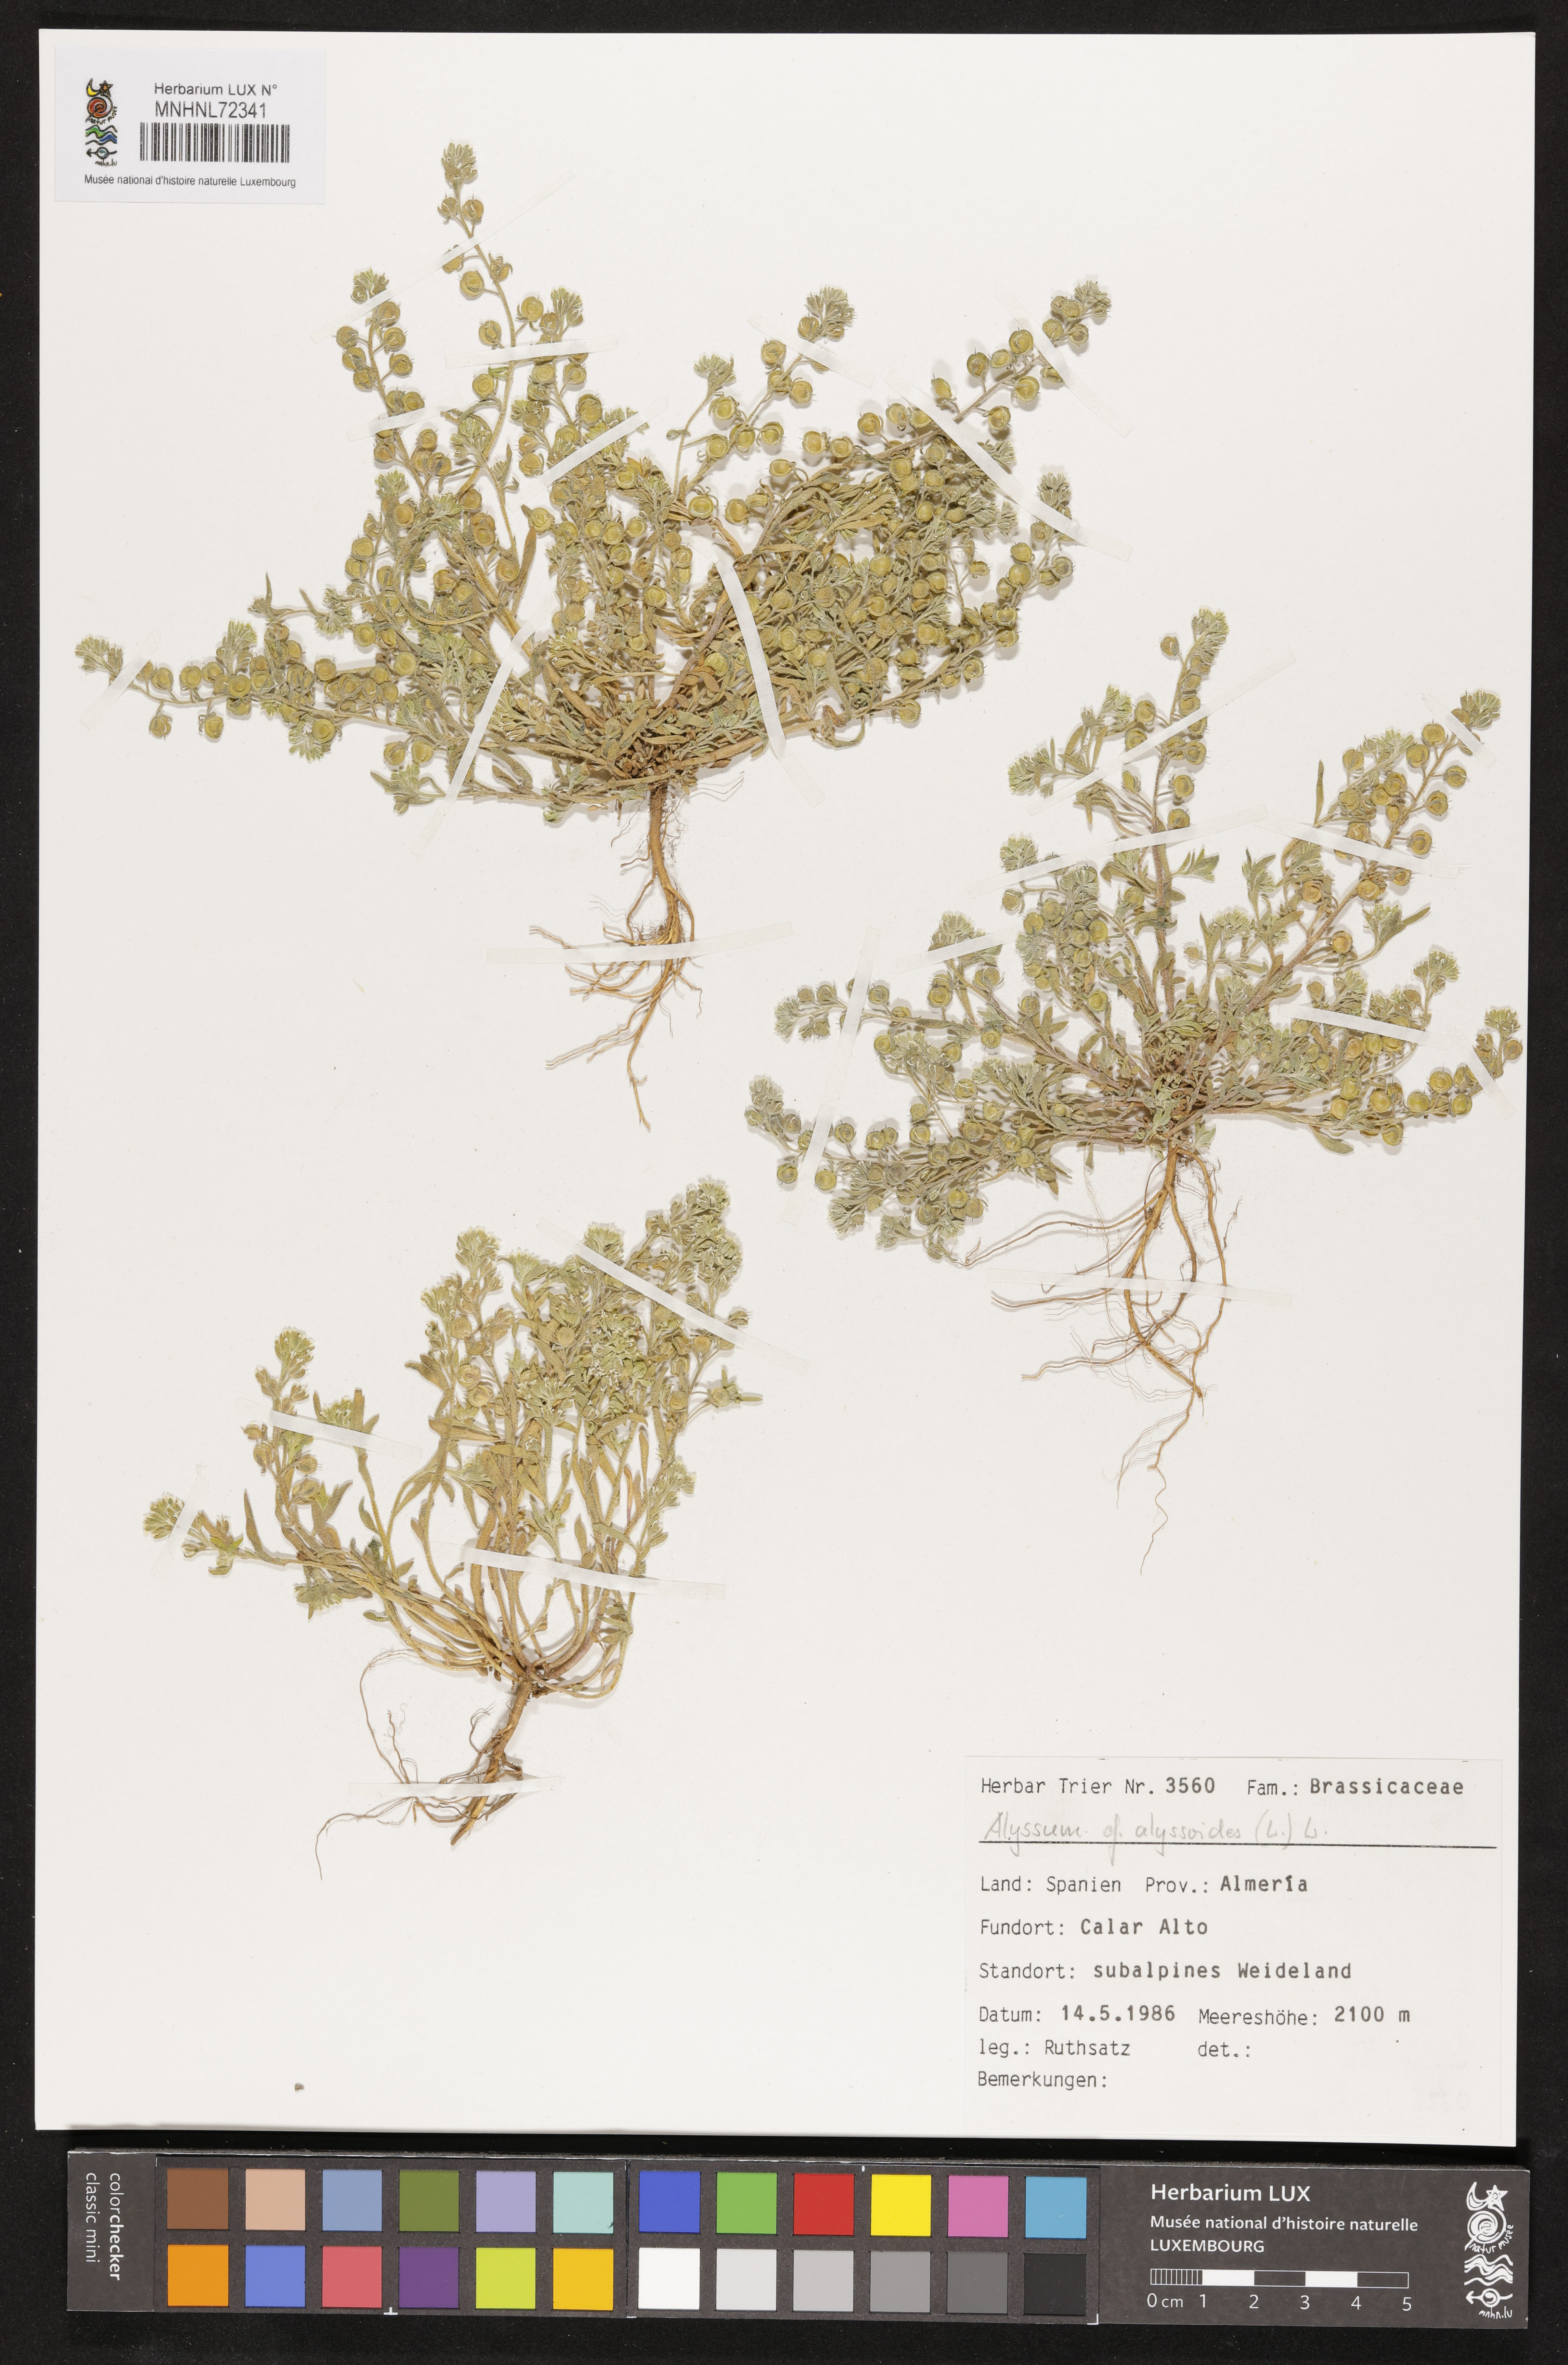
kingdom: Plantae
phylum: Tracheophyta
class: Magnoliopsida
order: Brassicales
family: Brassicaceae
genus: Alyssum
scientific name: Alyssum alyssoides
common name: Small alison
